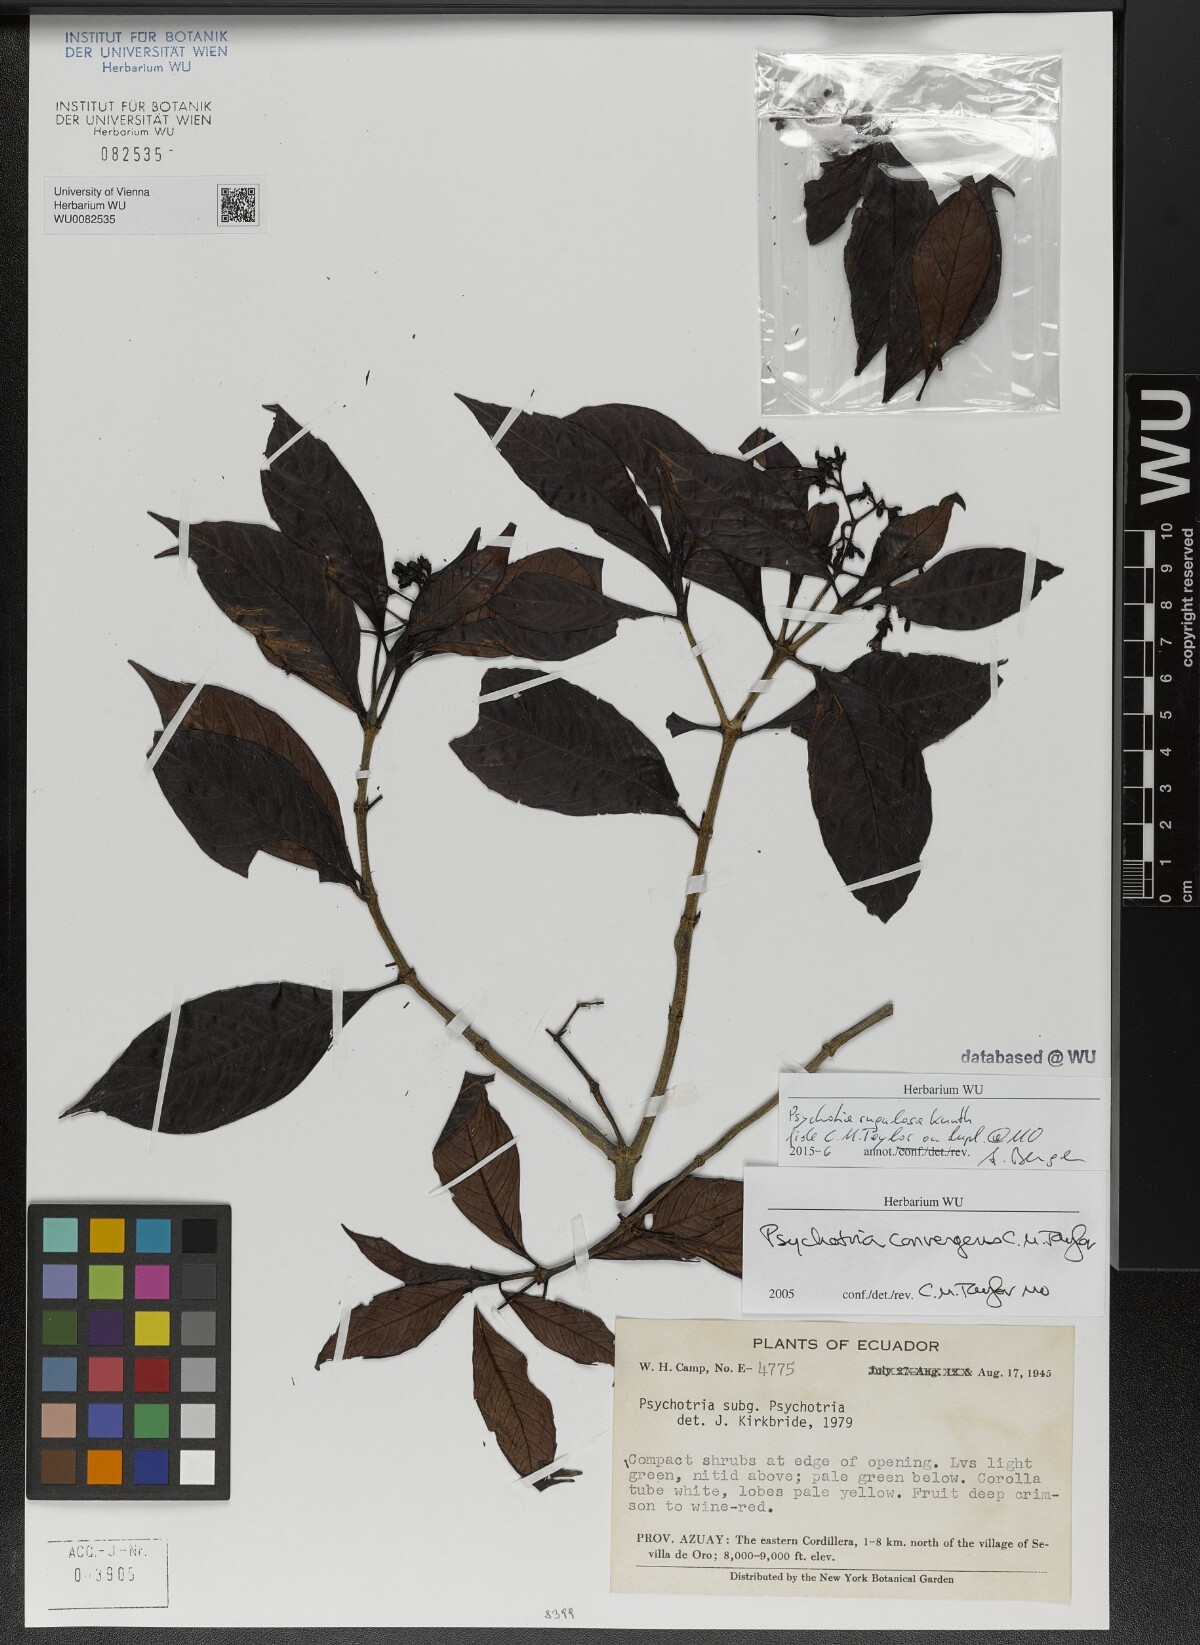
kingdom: Plantae
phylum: Tracheophyta
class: Magnoliopsida
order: Gentianales
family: Rubiaceae
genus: Psychotria
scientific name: Psychotria rugulosa
